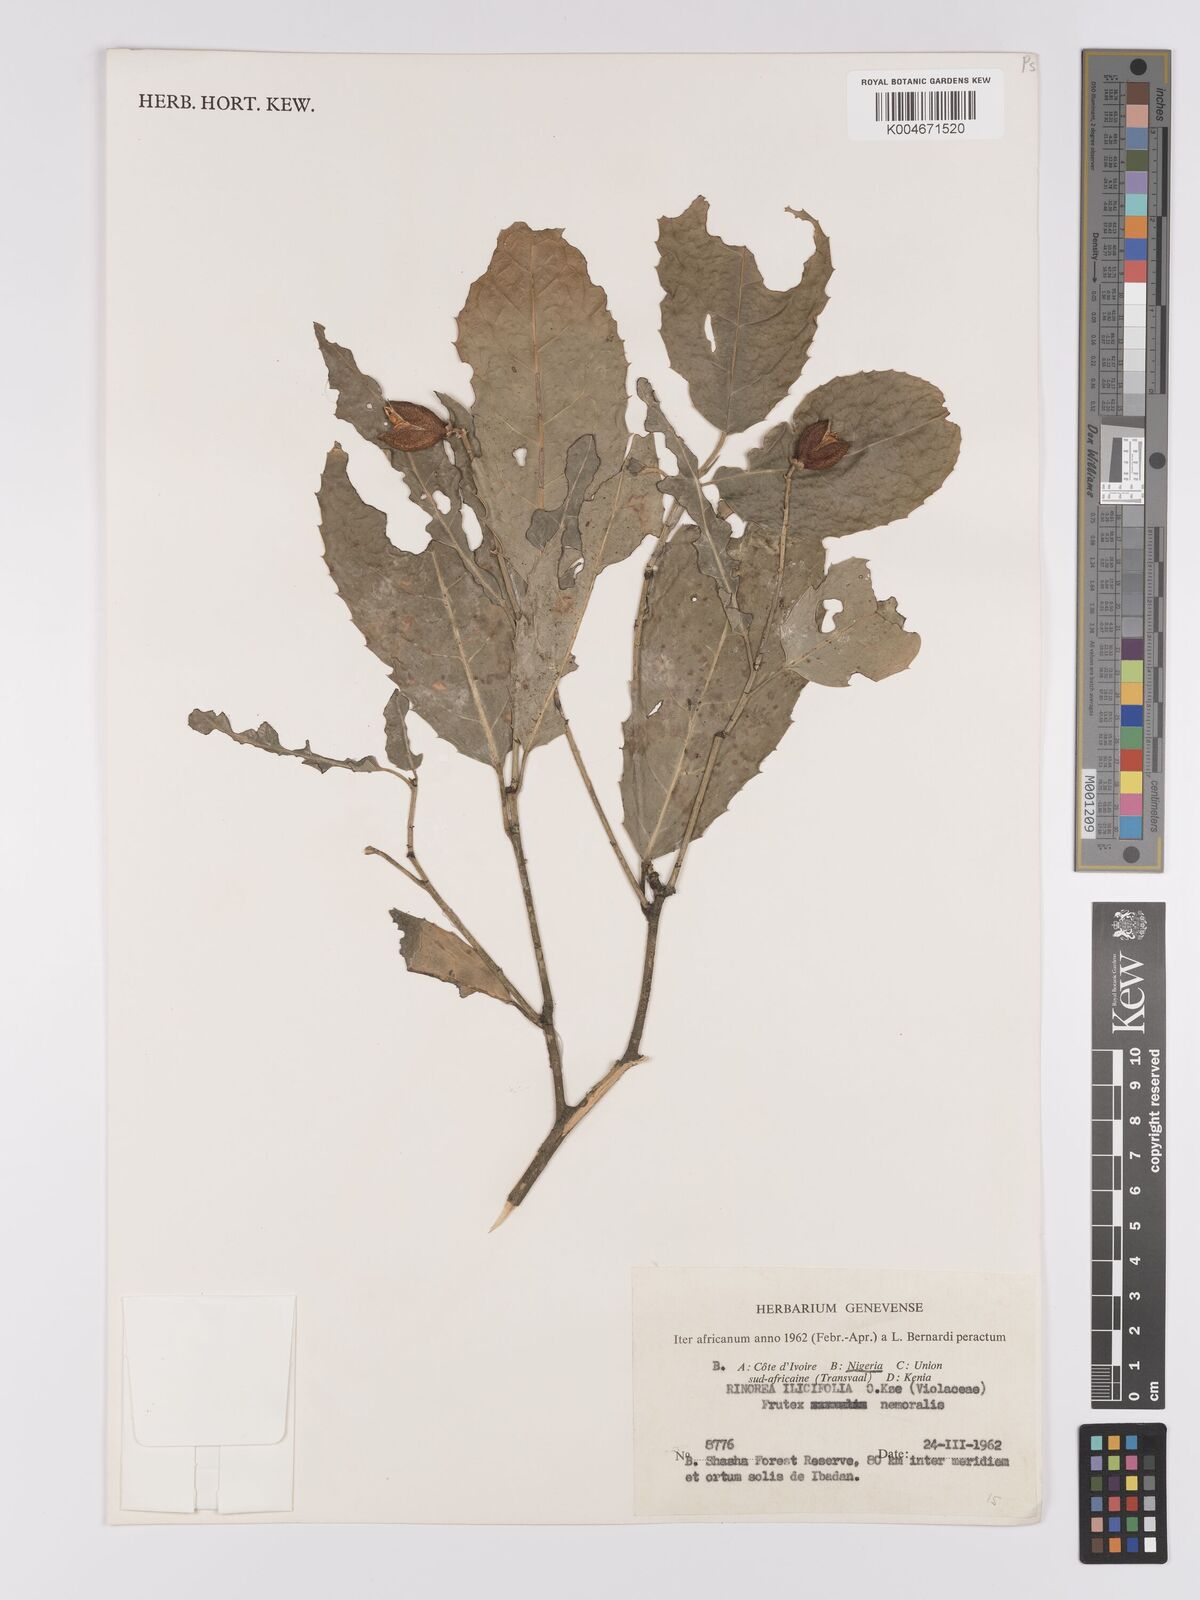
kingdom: Plantae
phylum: Tracheophyta
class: Magnoliopsida
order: Malpighiales
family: Violaceae
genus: Rinorea
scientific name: Rinorea ilicifolia
